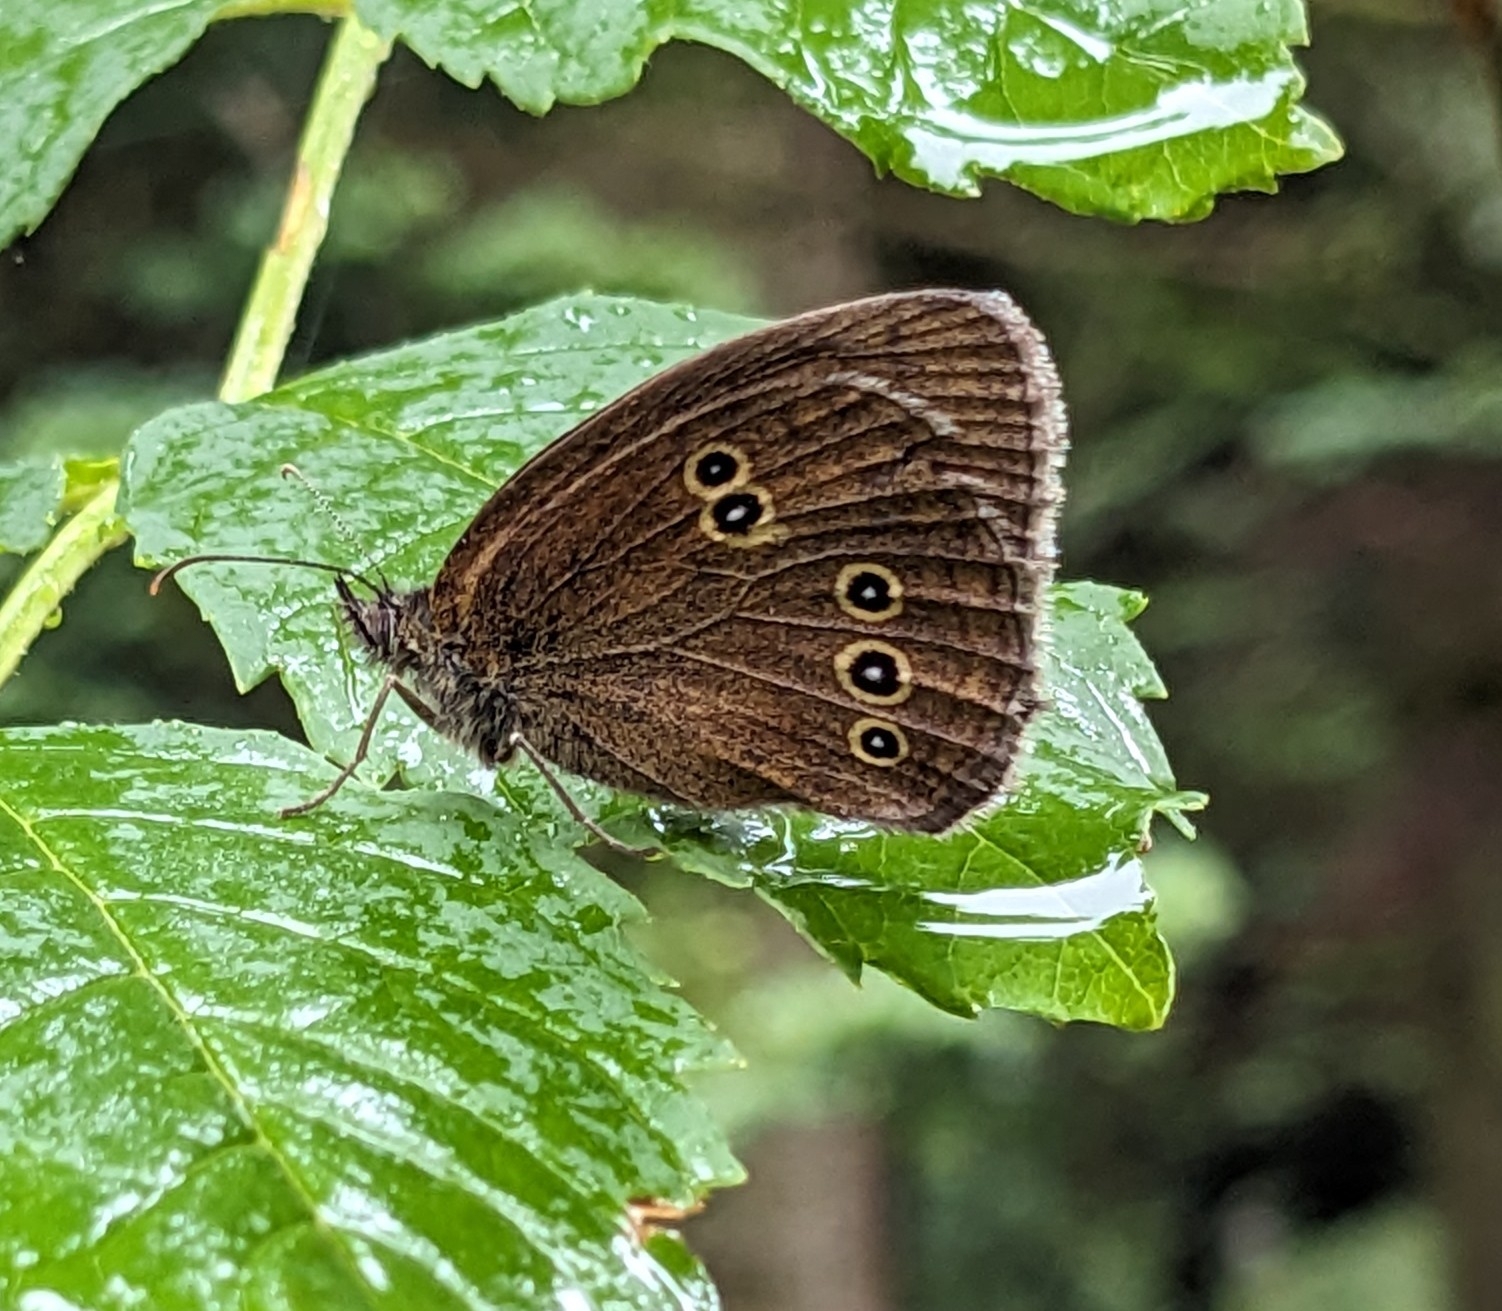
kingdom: Animalia
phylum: Arthropoda
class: Insecta
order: Lepidoptera
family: Nymphalidae
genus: Aphantopus
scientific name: Aphantopus hyperantus
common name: Engrandøje
